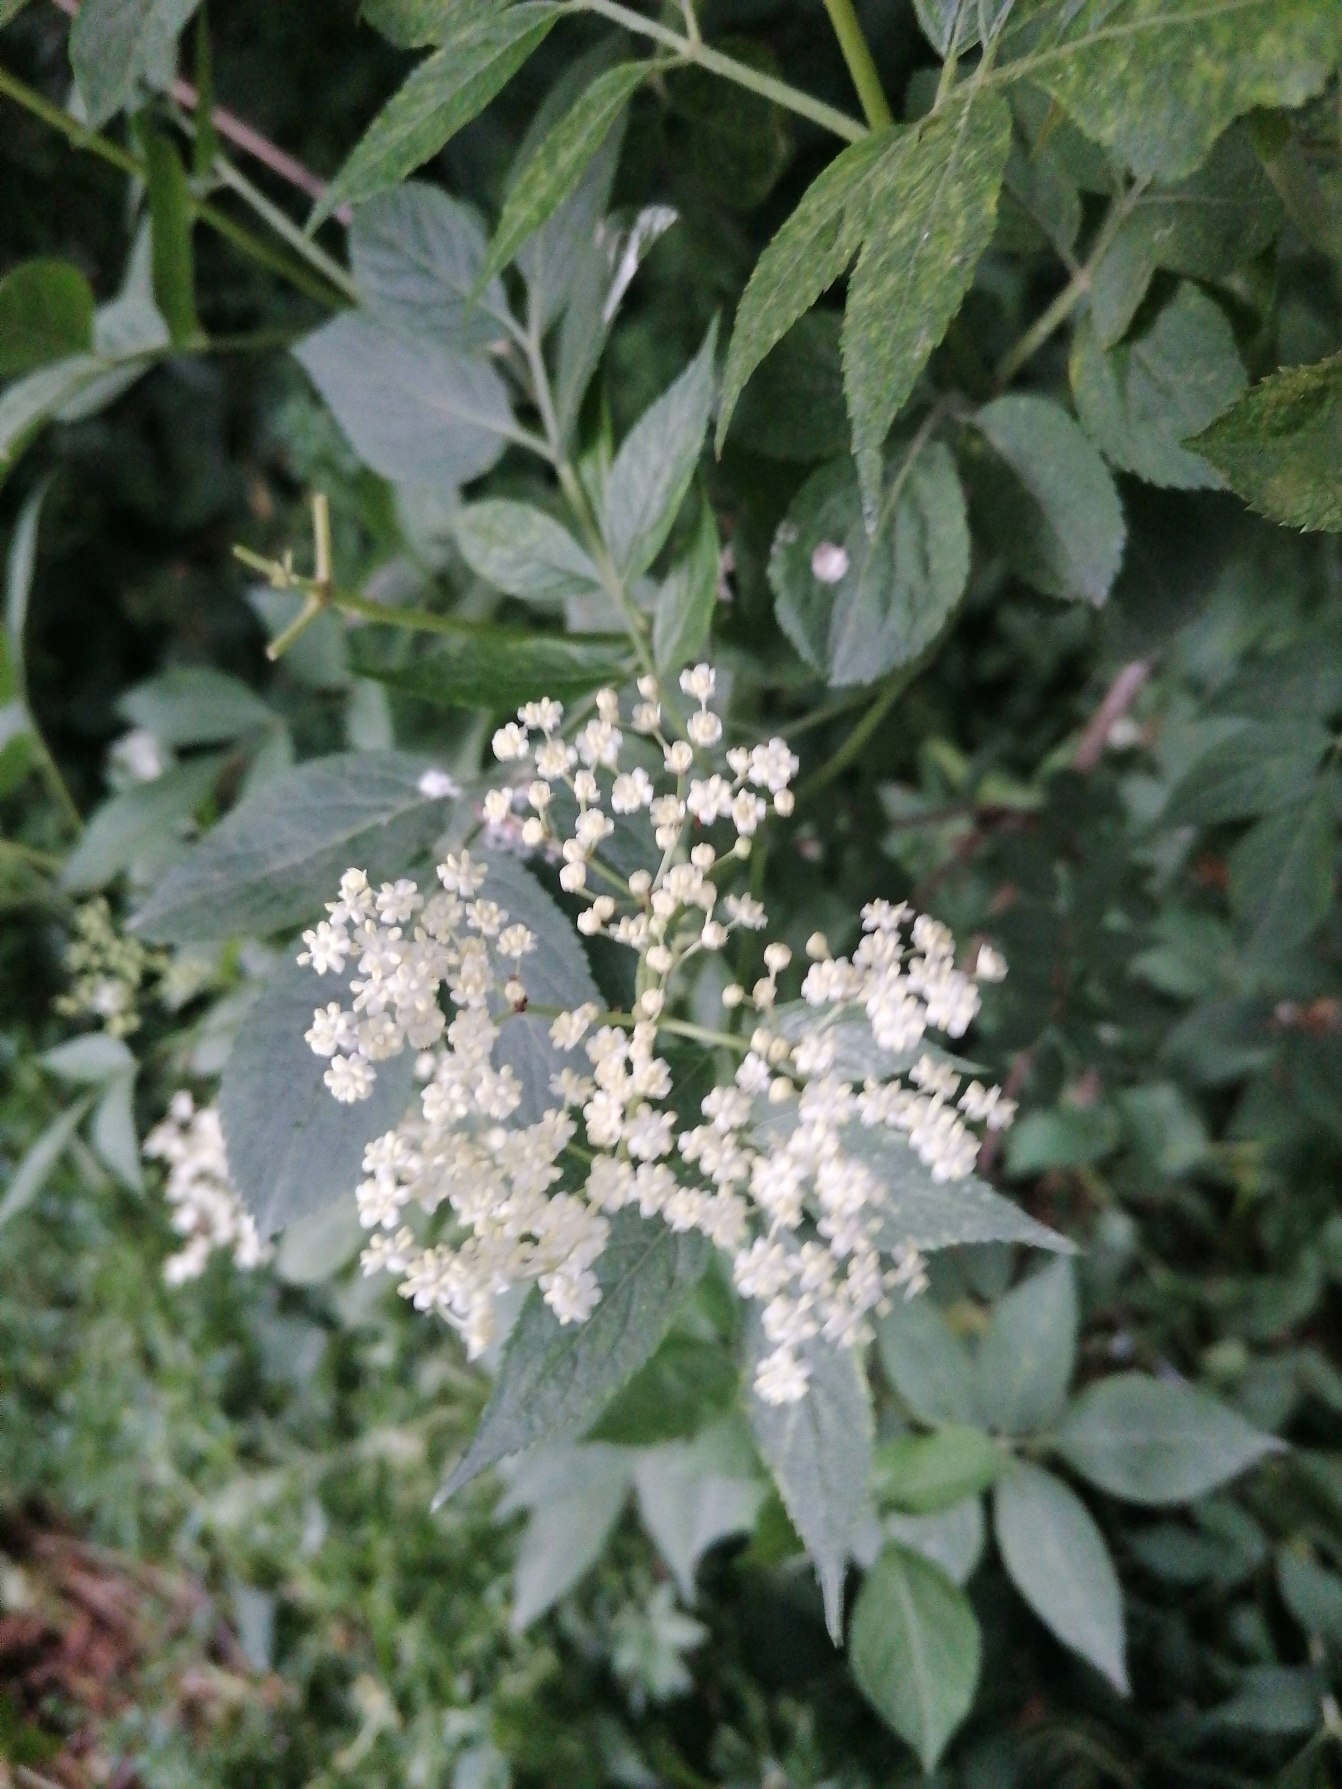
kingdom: Plantae
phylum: Tracheophyta
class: Magnoliopsida
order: Dipsacales
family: Viburnaceae
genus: Sambucus
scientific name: Sambucus nigra
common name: Almindelig hyld
